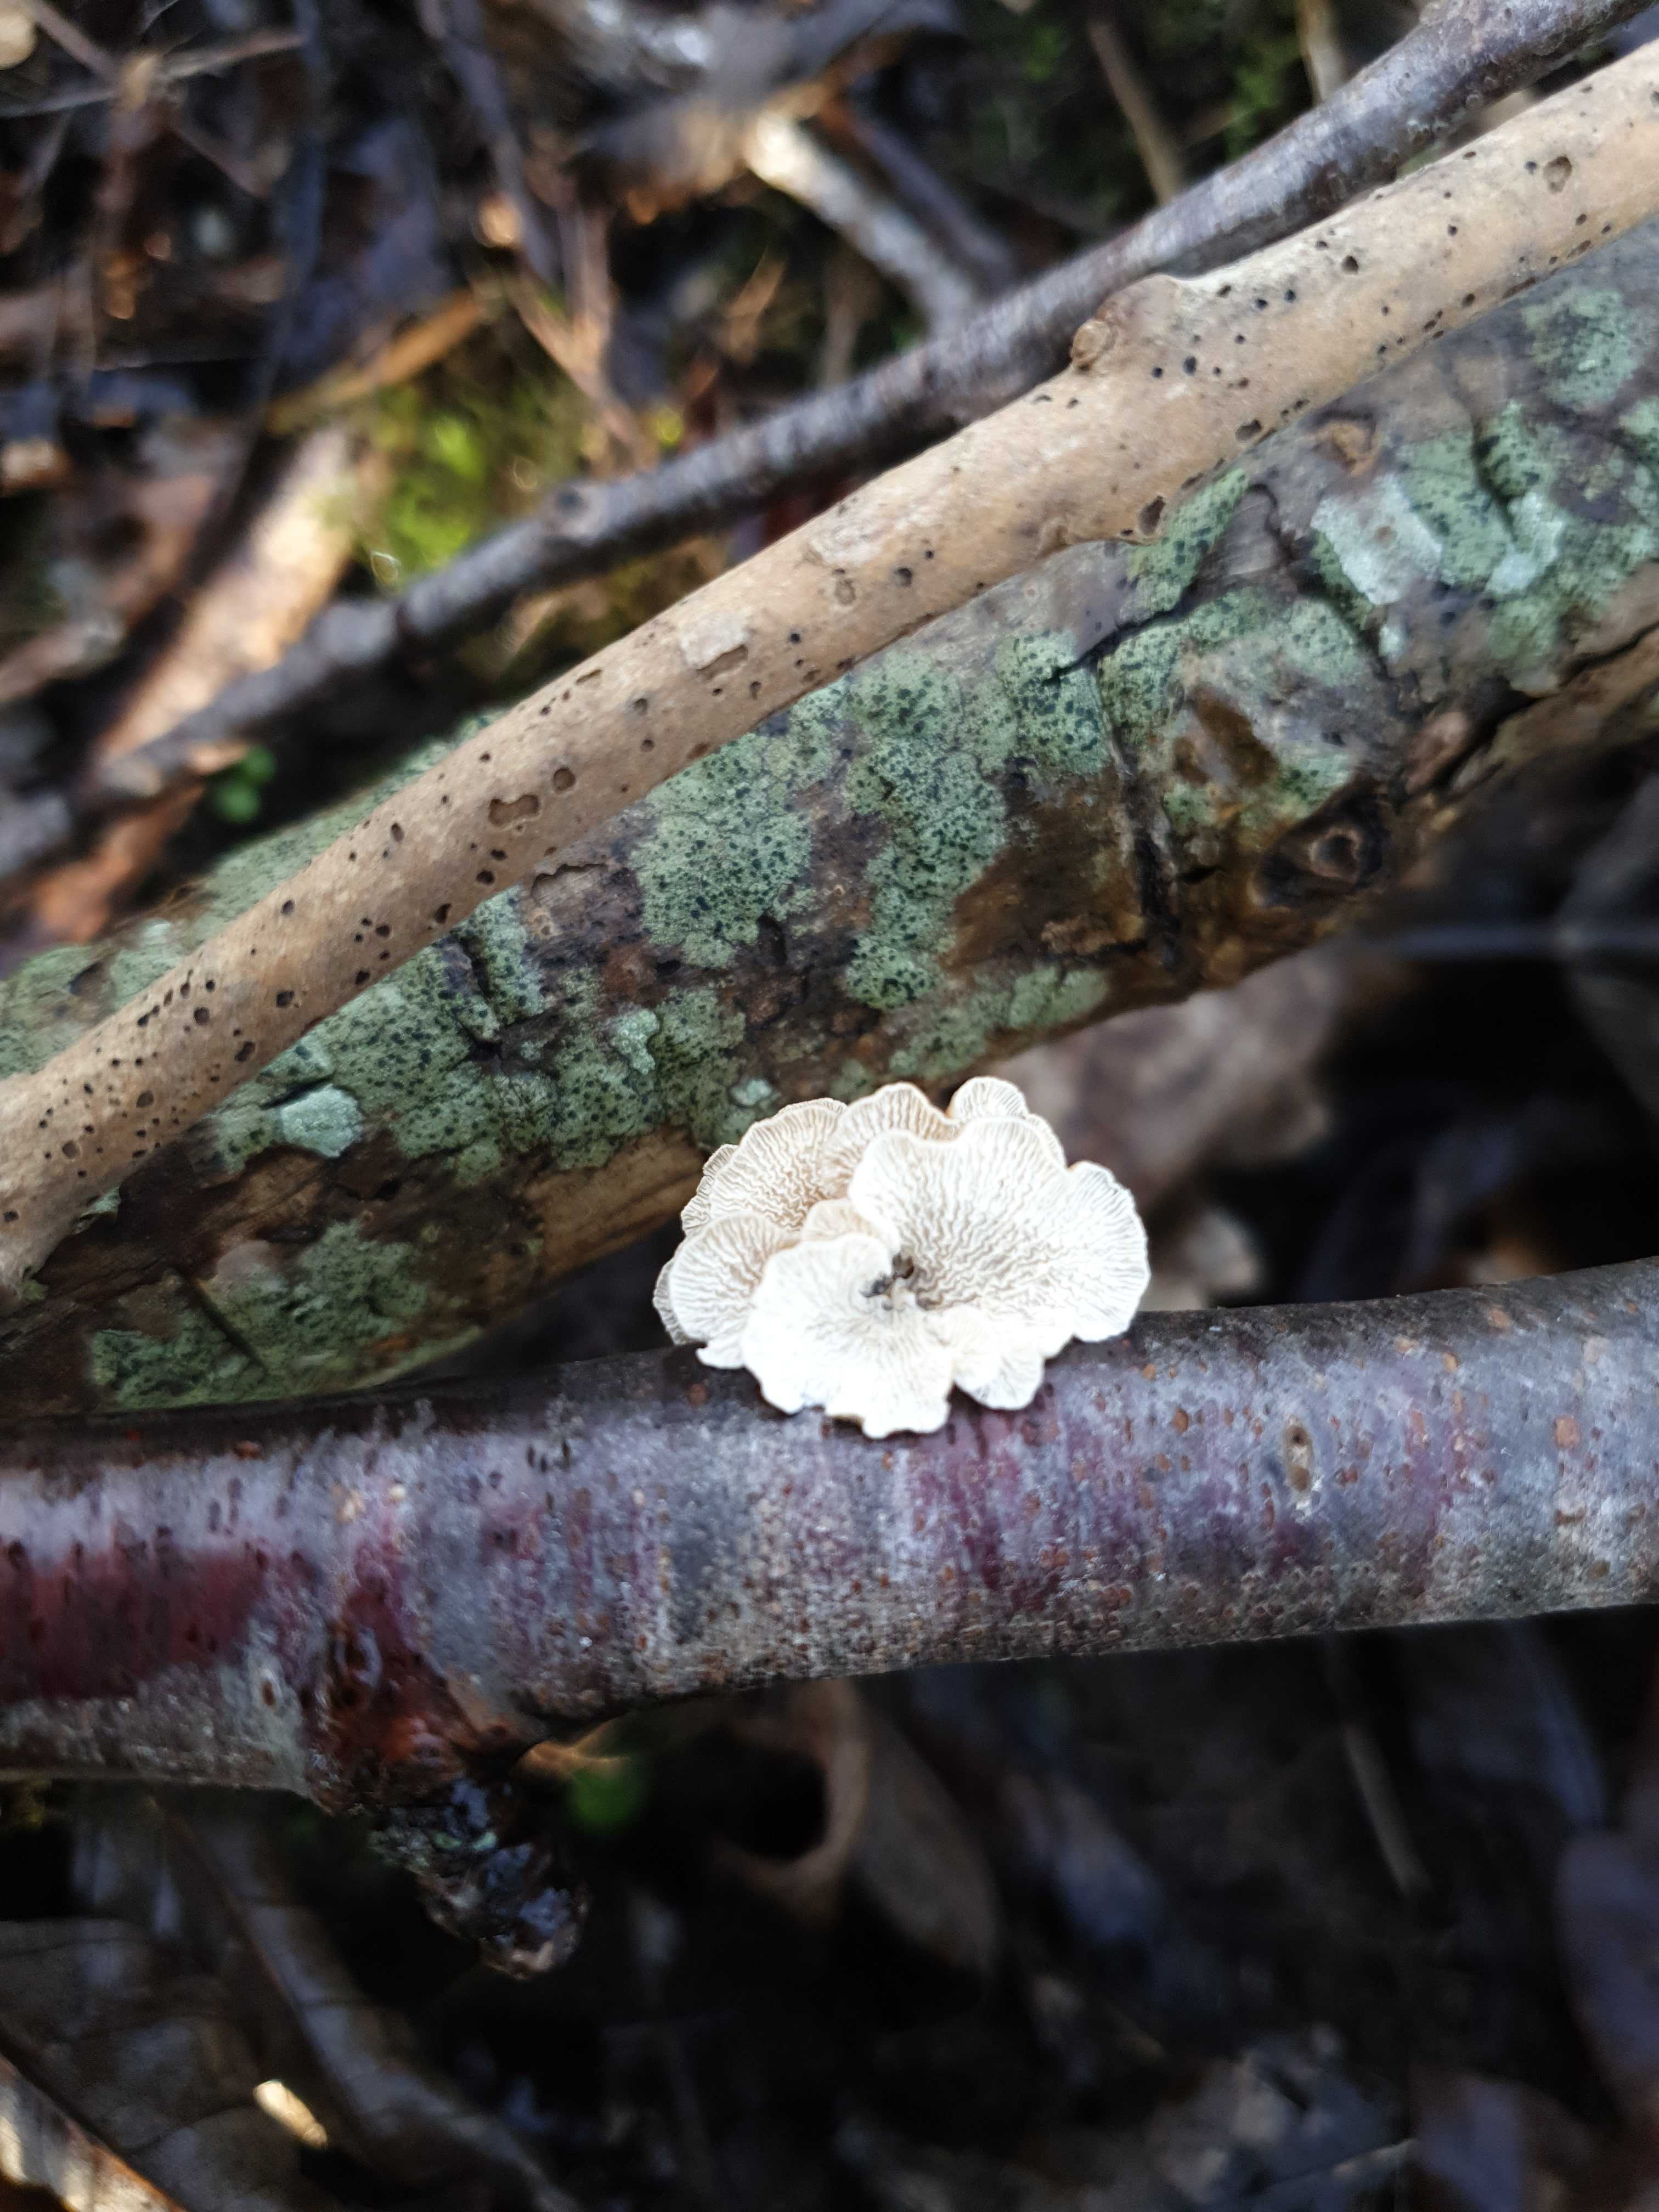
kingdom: Fungi
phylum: Basidiomycota
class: Agaricomycetes
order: Amylocorticiales
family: Amylocorticiaceae
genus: Plicaturopsis
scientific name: Plicaturopsis crispa
